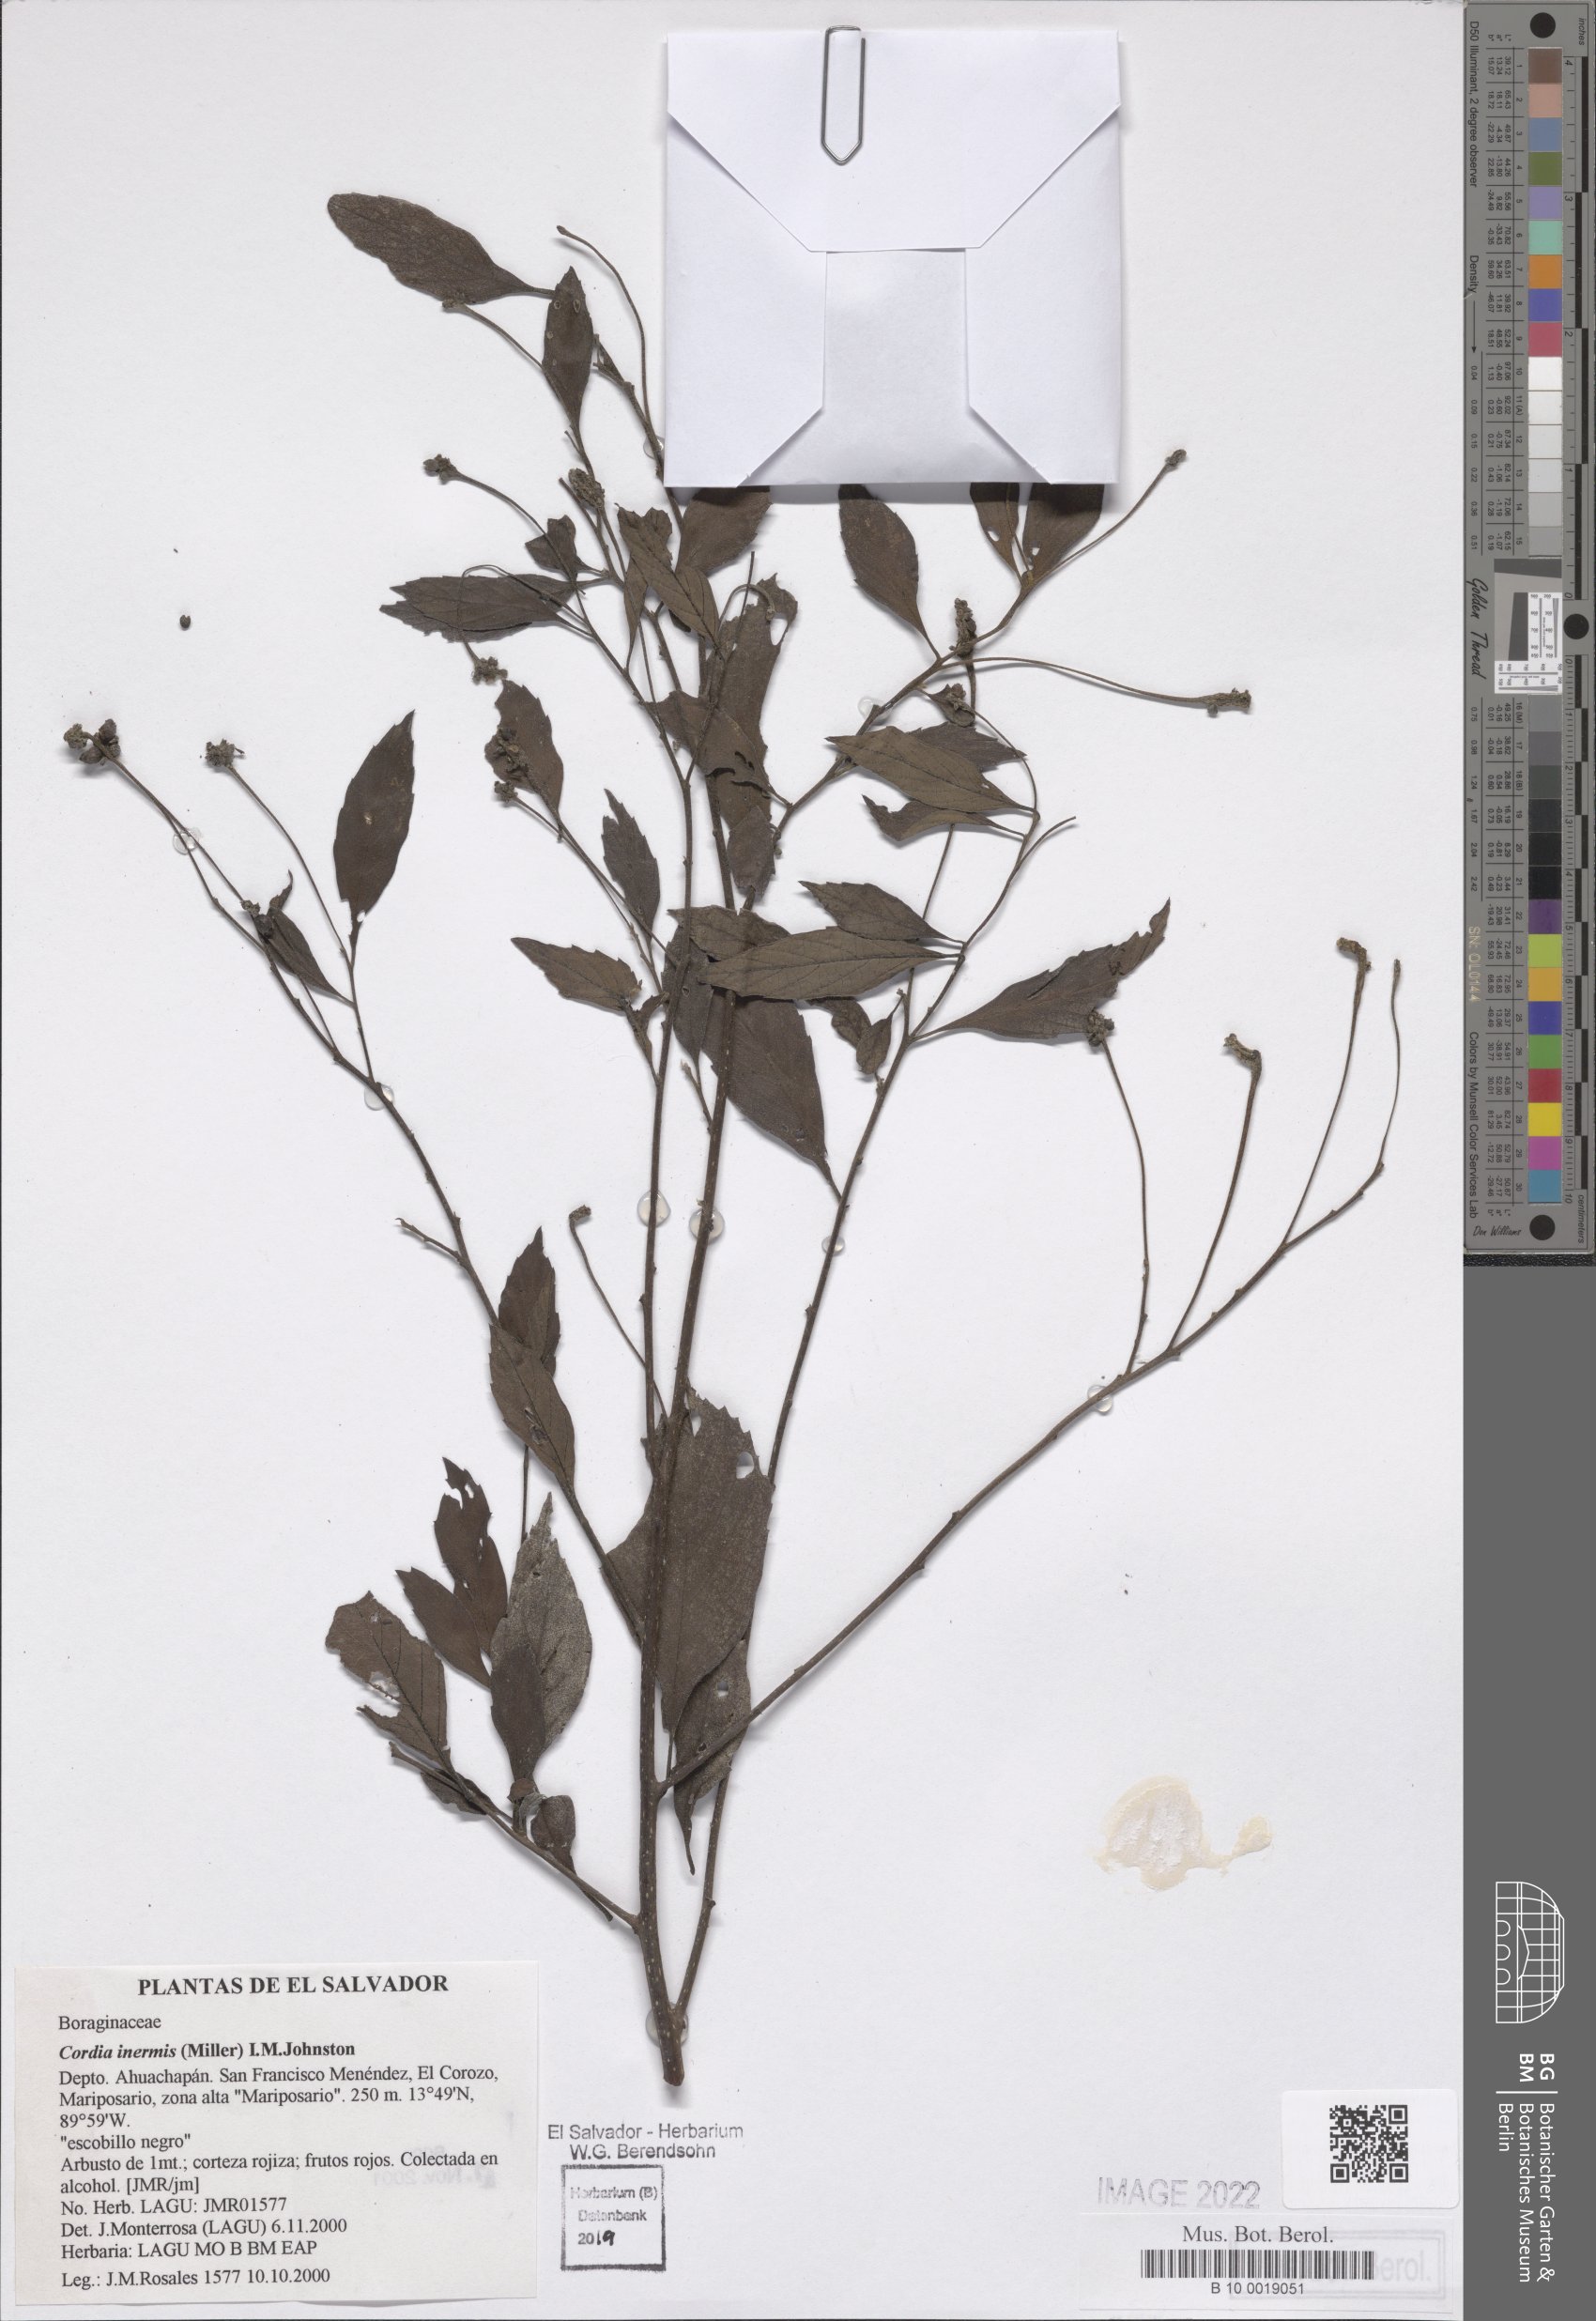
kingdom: Plantae
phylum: Tracheophyta
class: Magnoliopsida
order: Boraginales
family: Cordiaceae
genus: Varronia
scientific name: Varronia inermis
